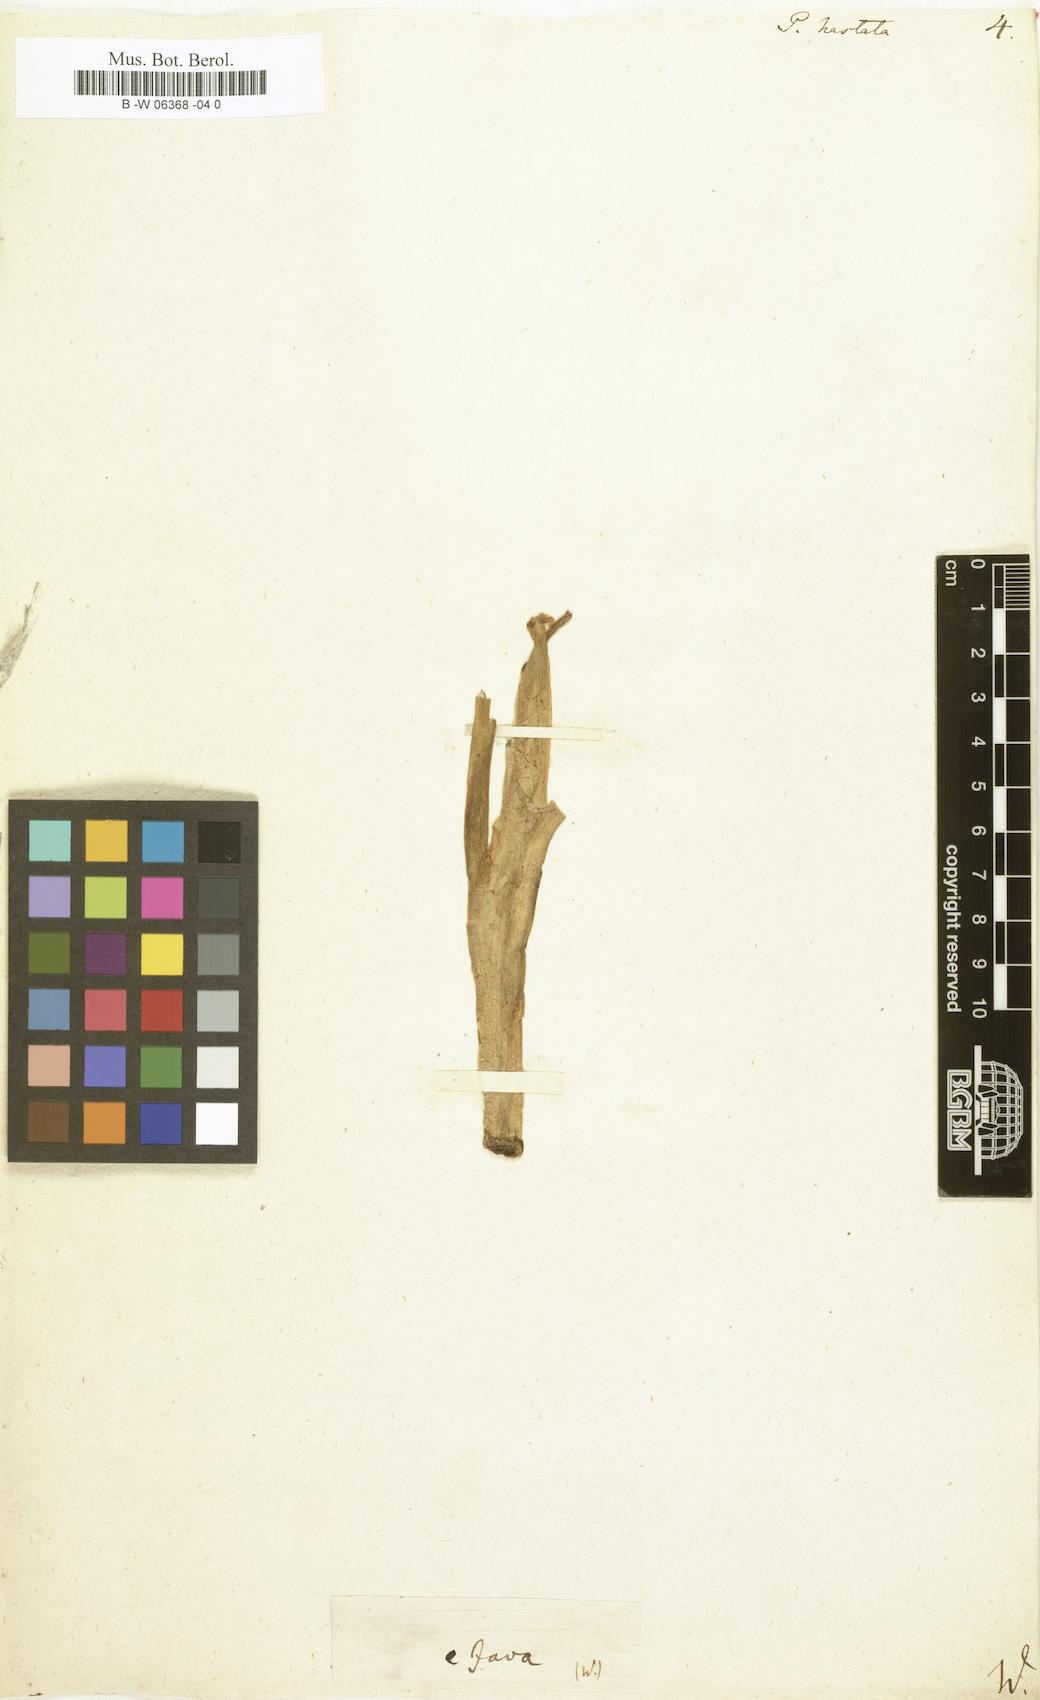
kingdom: Plantae
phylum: Tracheophyta
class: Liliopsida
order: Commelinales
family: Pontederiaceae
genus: Pontederia
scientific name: Pontederia hastata
